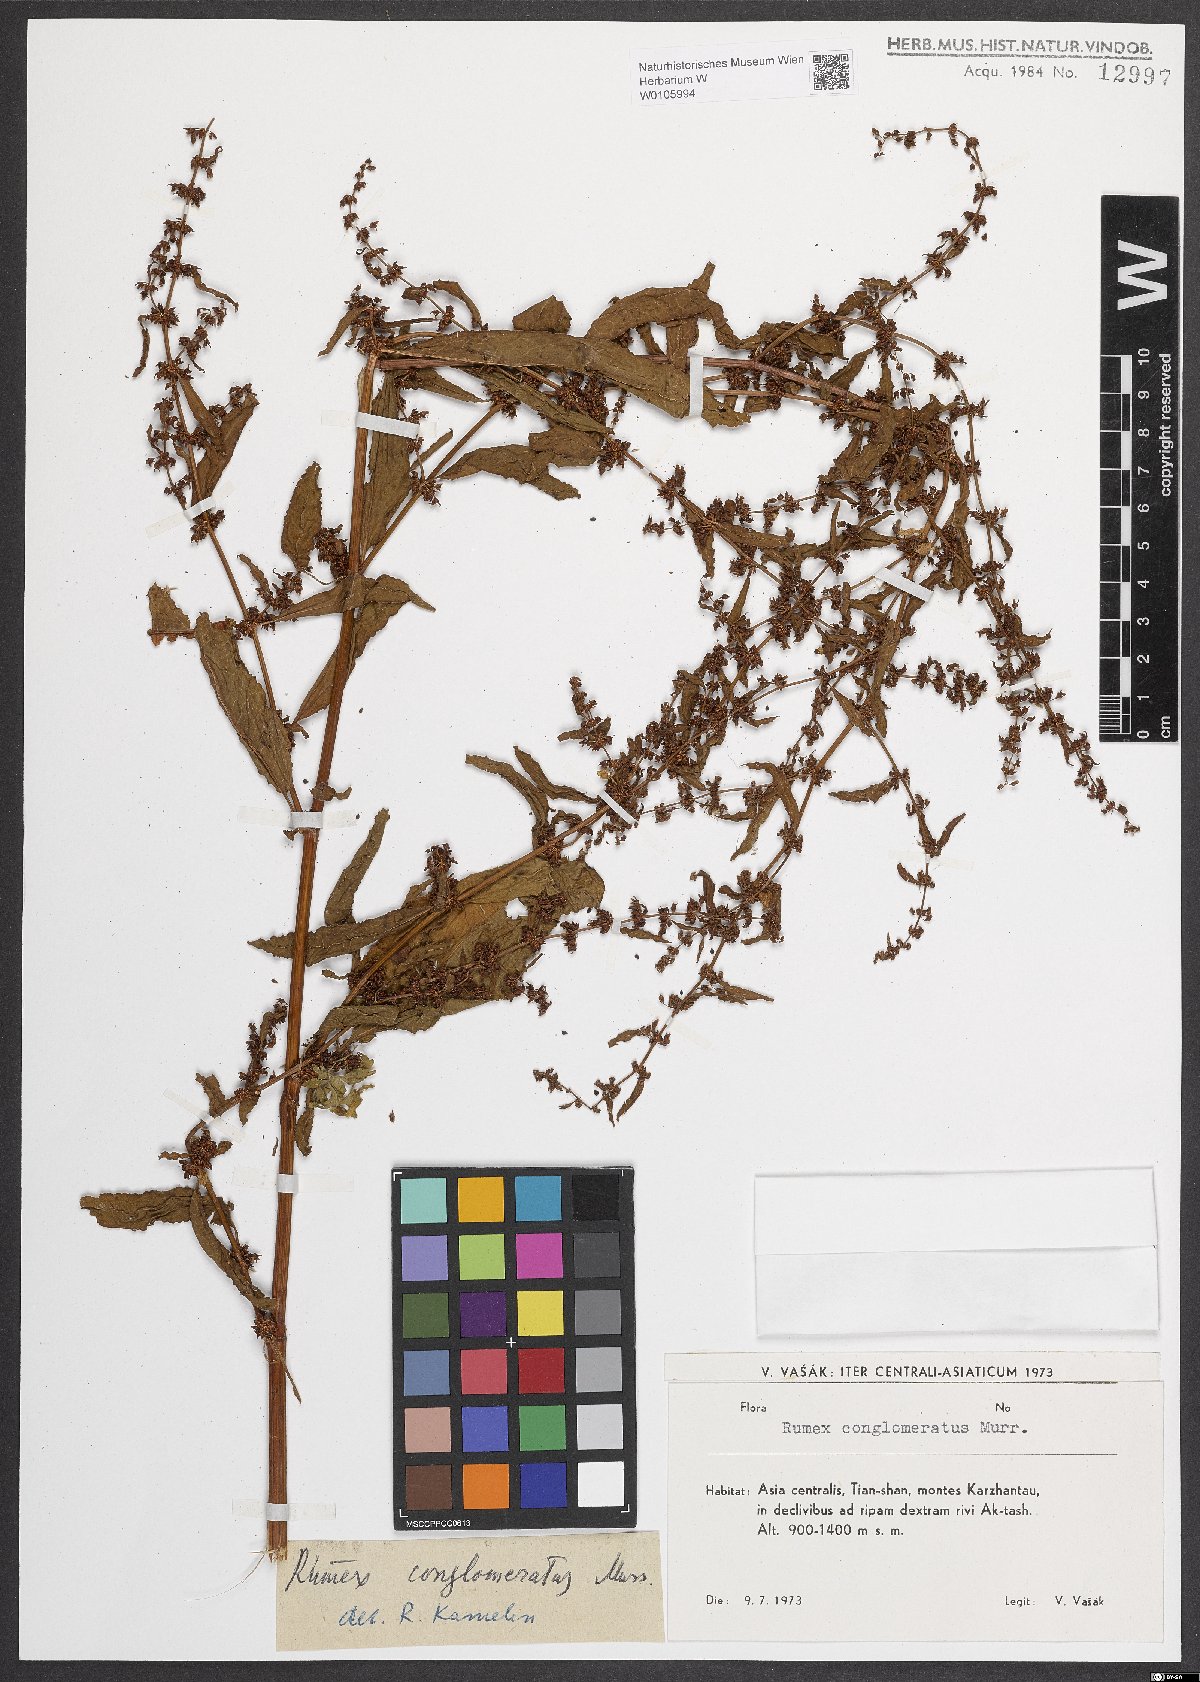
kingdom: Plantae
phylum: Tracheophyta
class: Magnoliopsida
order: Caryophyllales
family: Polygonaceae
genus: Rumex
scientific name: Rumex conglomeratus
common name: Clustered dock
